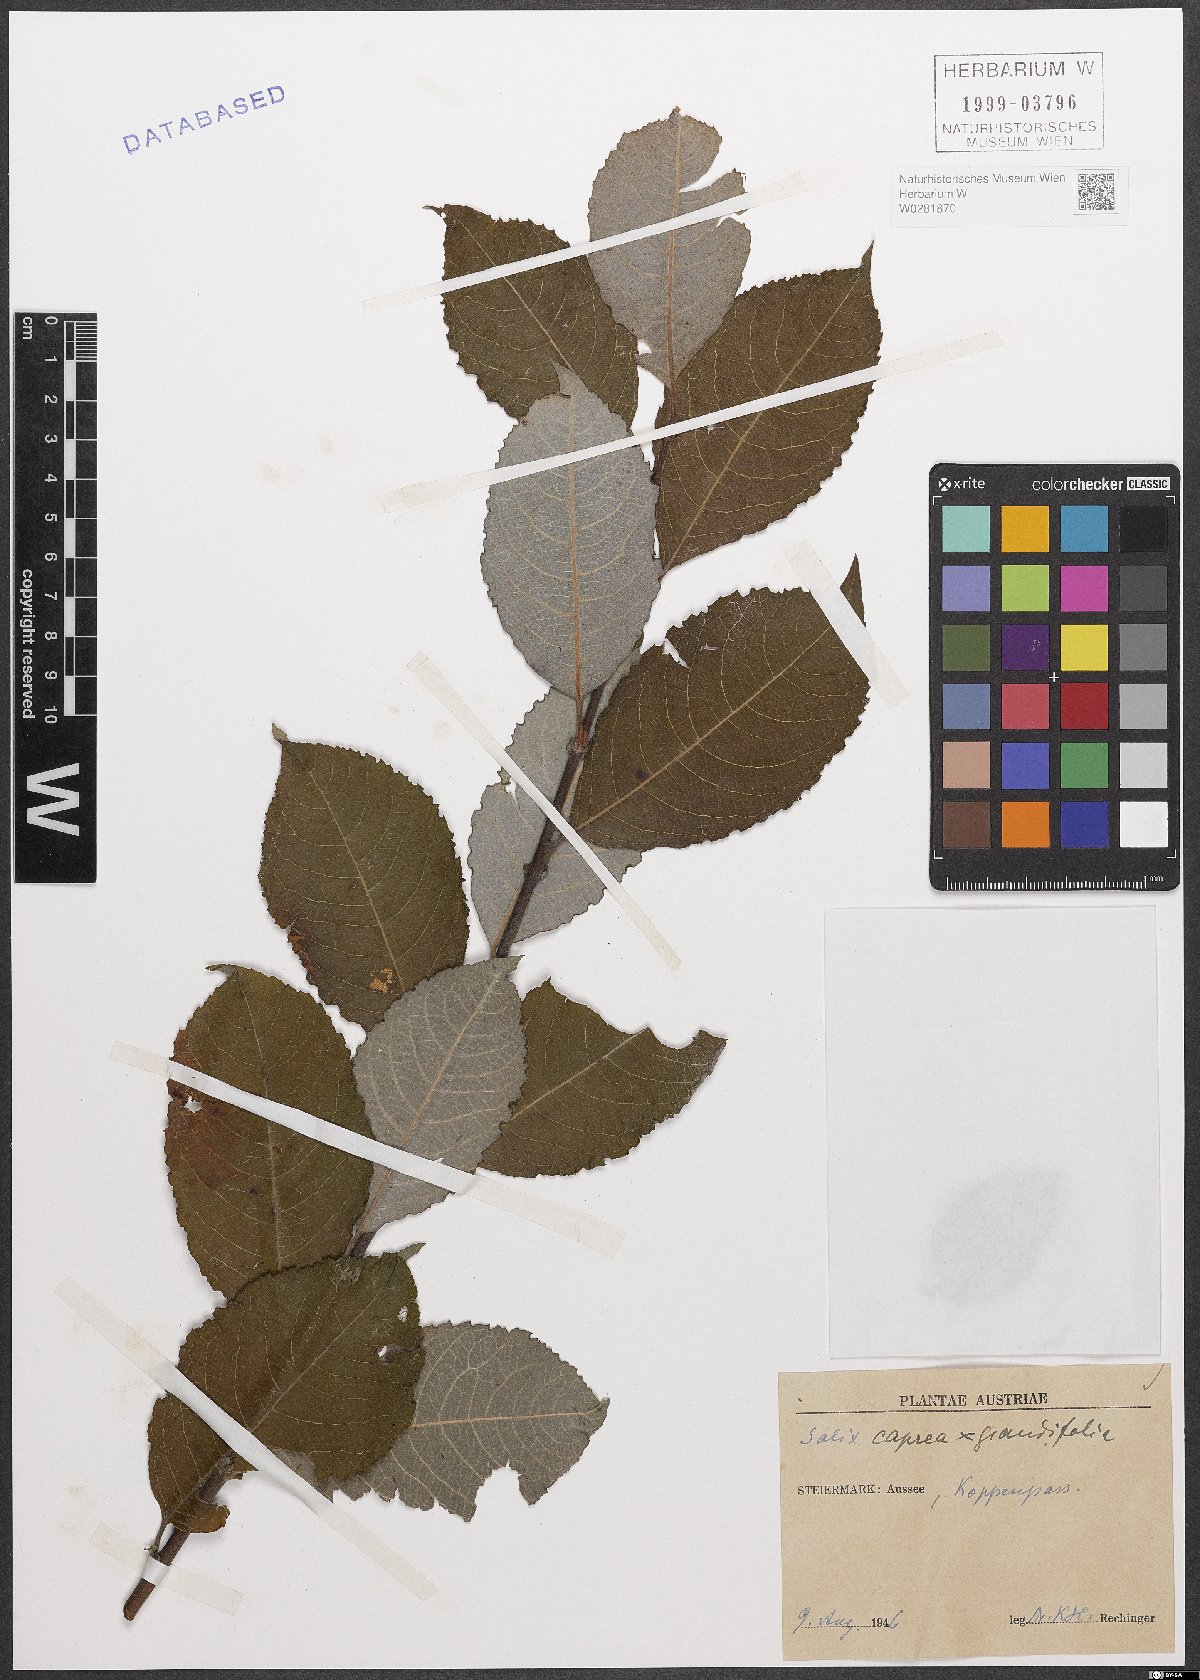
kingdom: Plantae
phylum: Tracheophyta
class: Magnoliopsida
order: Malpighiales
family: Salicaceae
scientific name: Salicaceae
